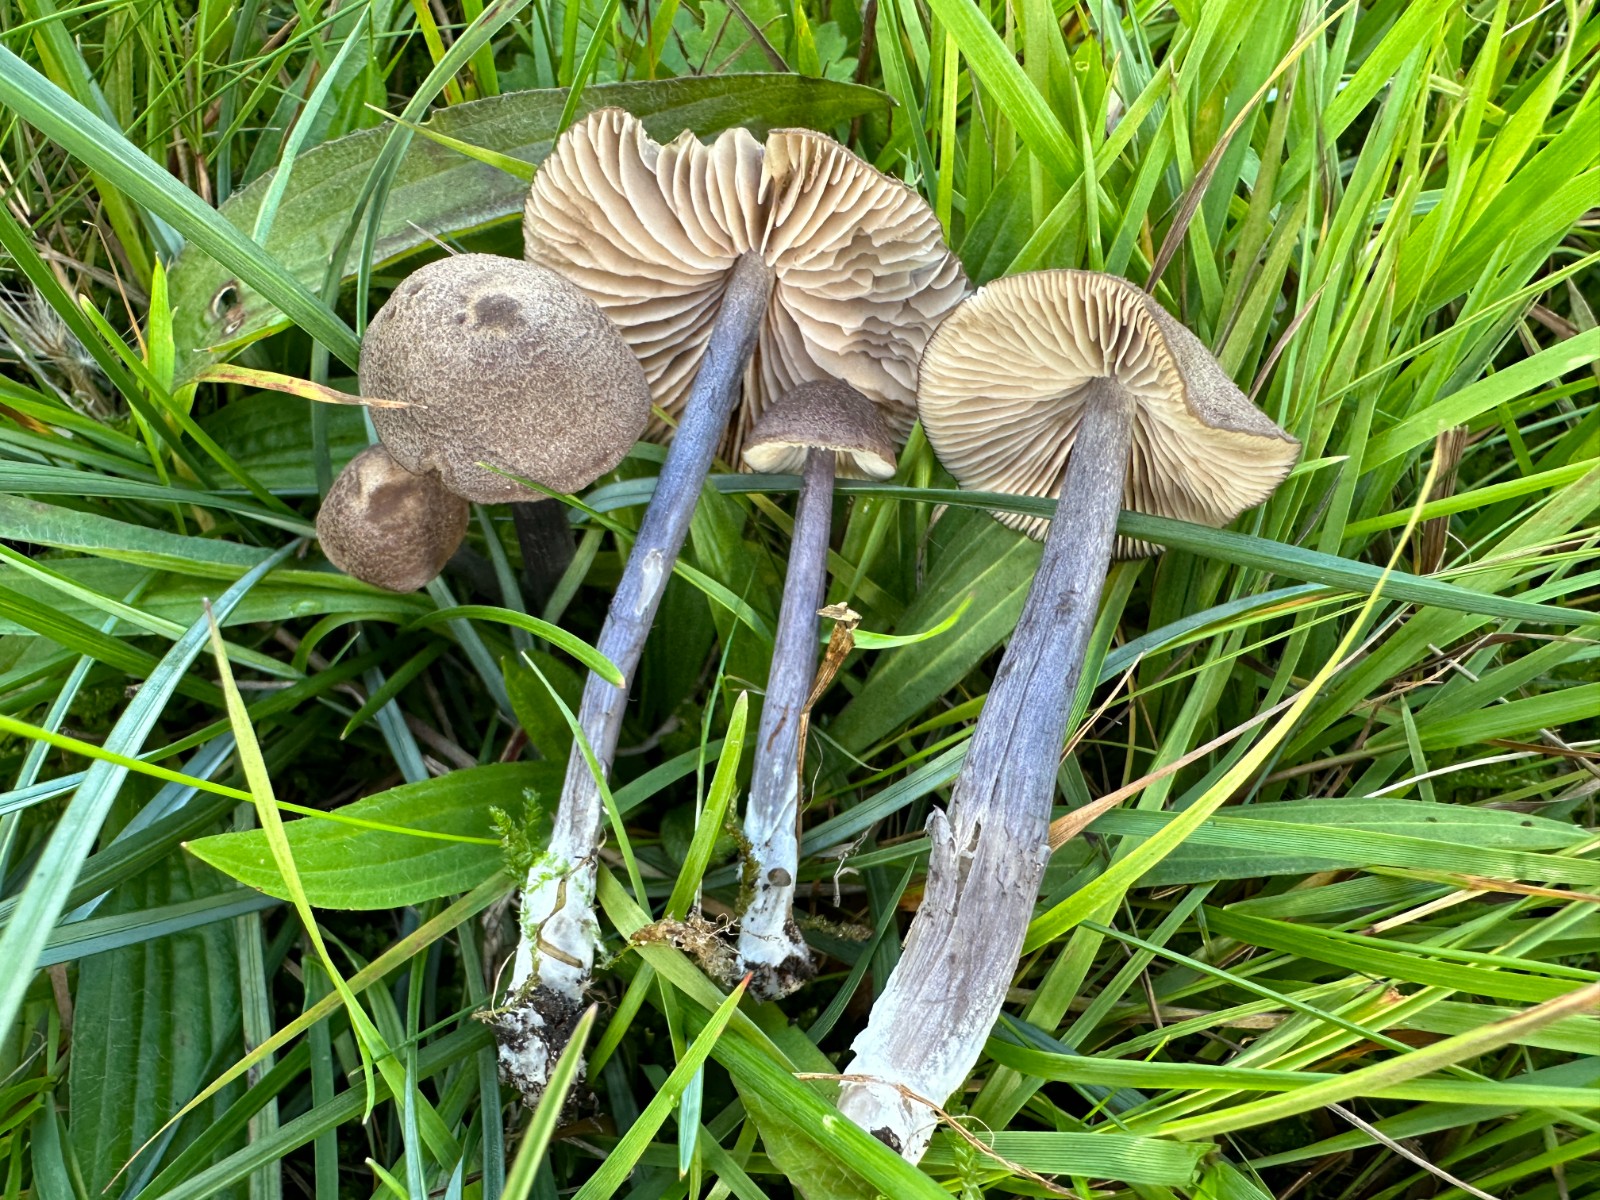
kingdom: Fungi
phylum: Basidiomycota
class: Agaricomycetes
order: Agaricales
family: Entolomataceae
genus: Entoloma
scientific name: Entoloma griseocyaneum
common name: gråblå rødblad
